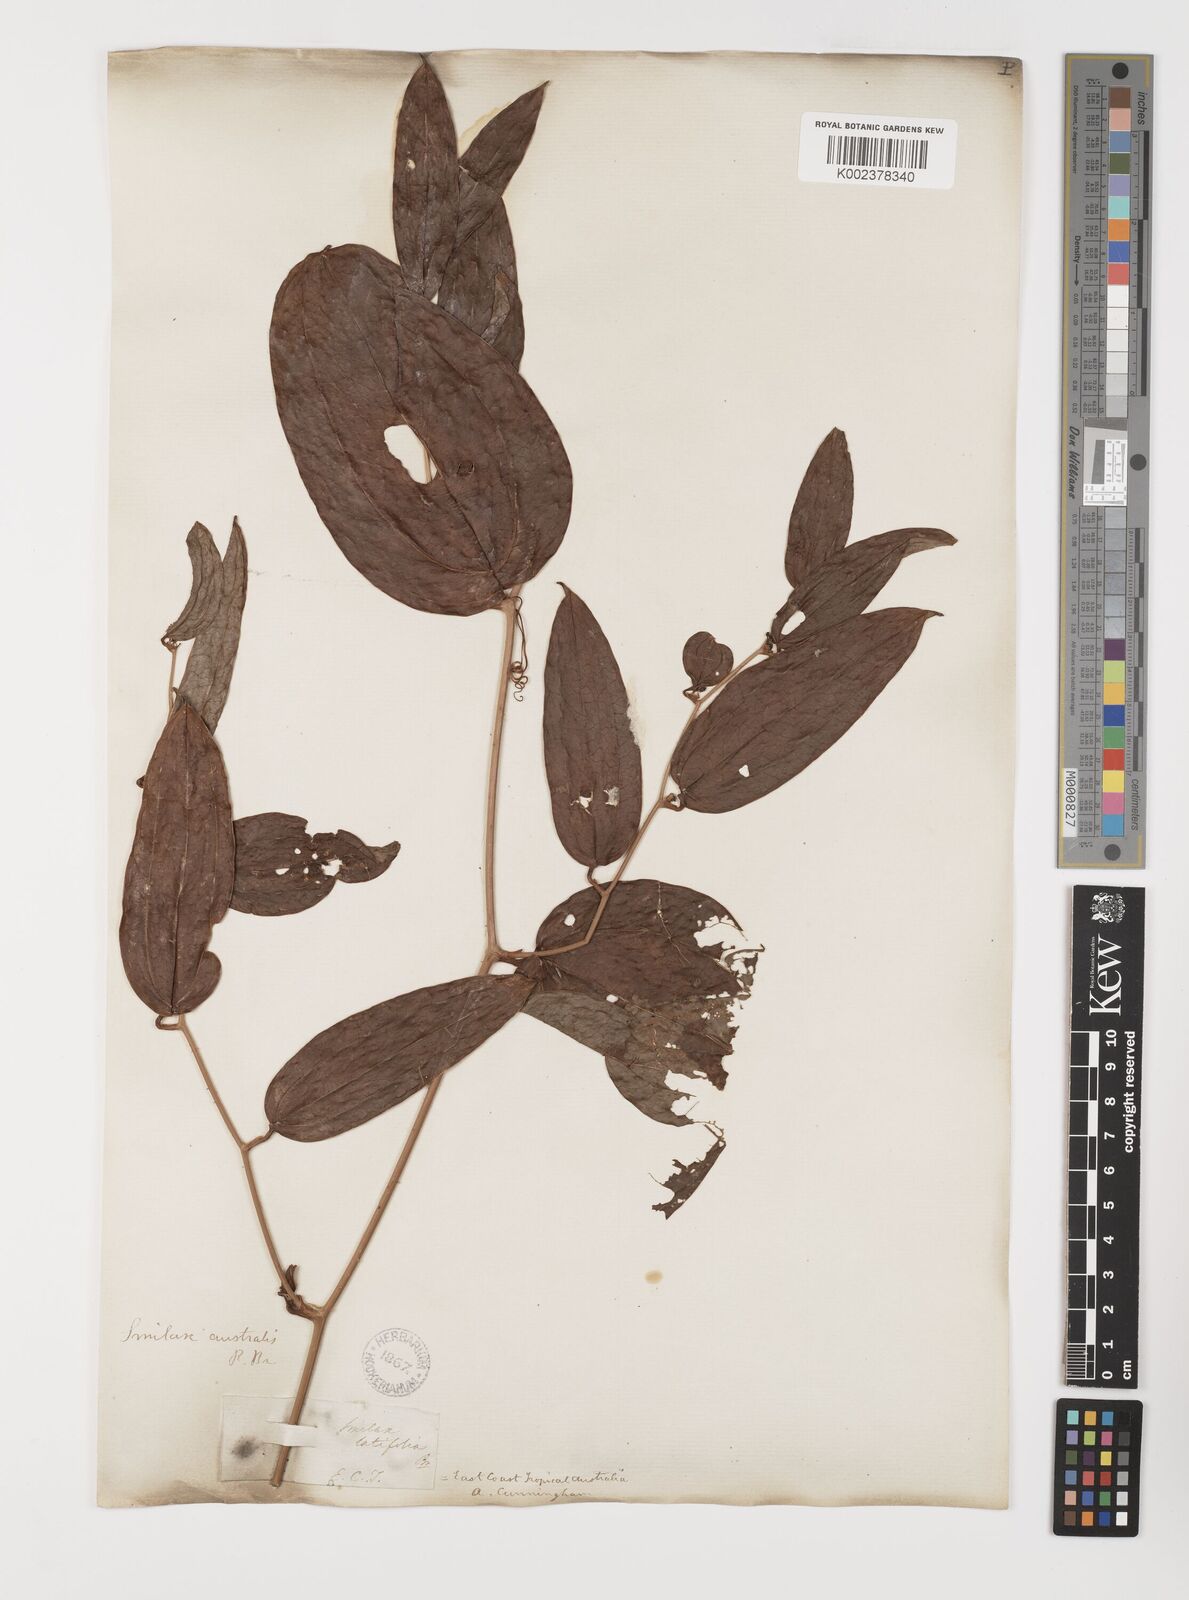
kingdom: Plantae
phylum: Tracheophyta
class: Liliopsida
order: Liliales
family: Smilacaceae
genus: Smilax
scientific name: Smilax australis
